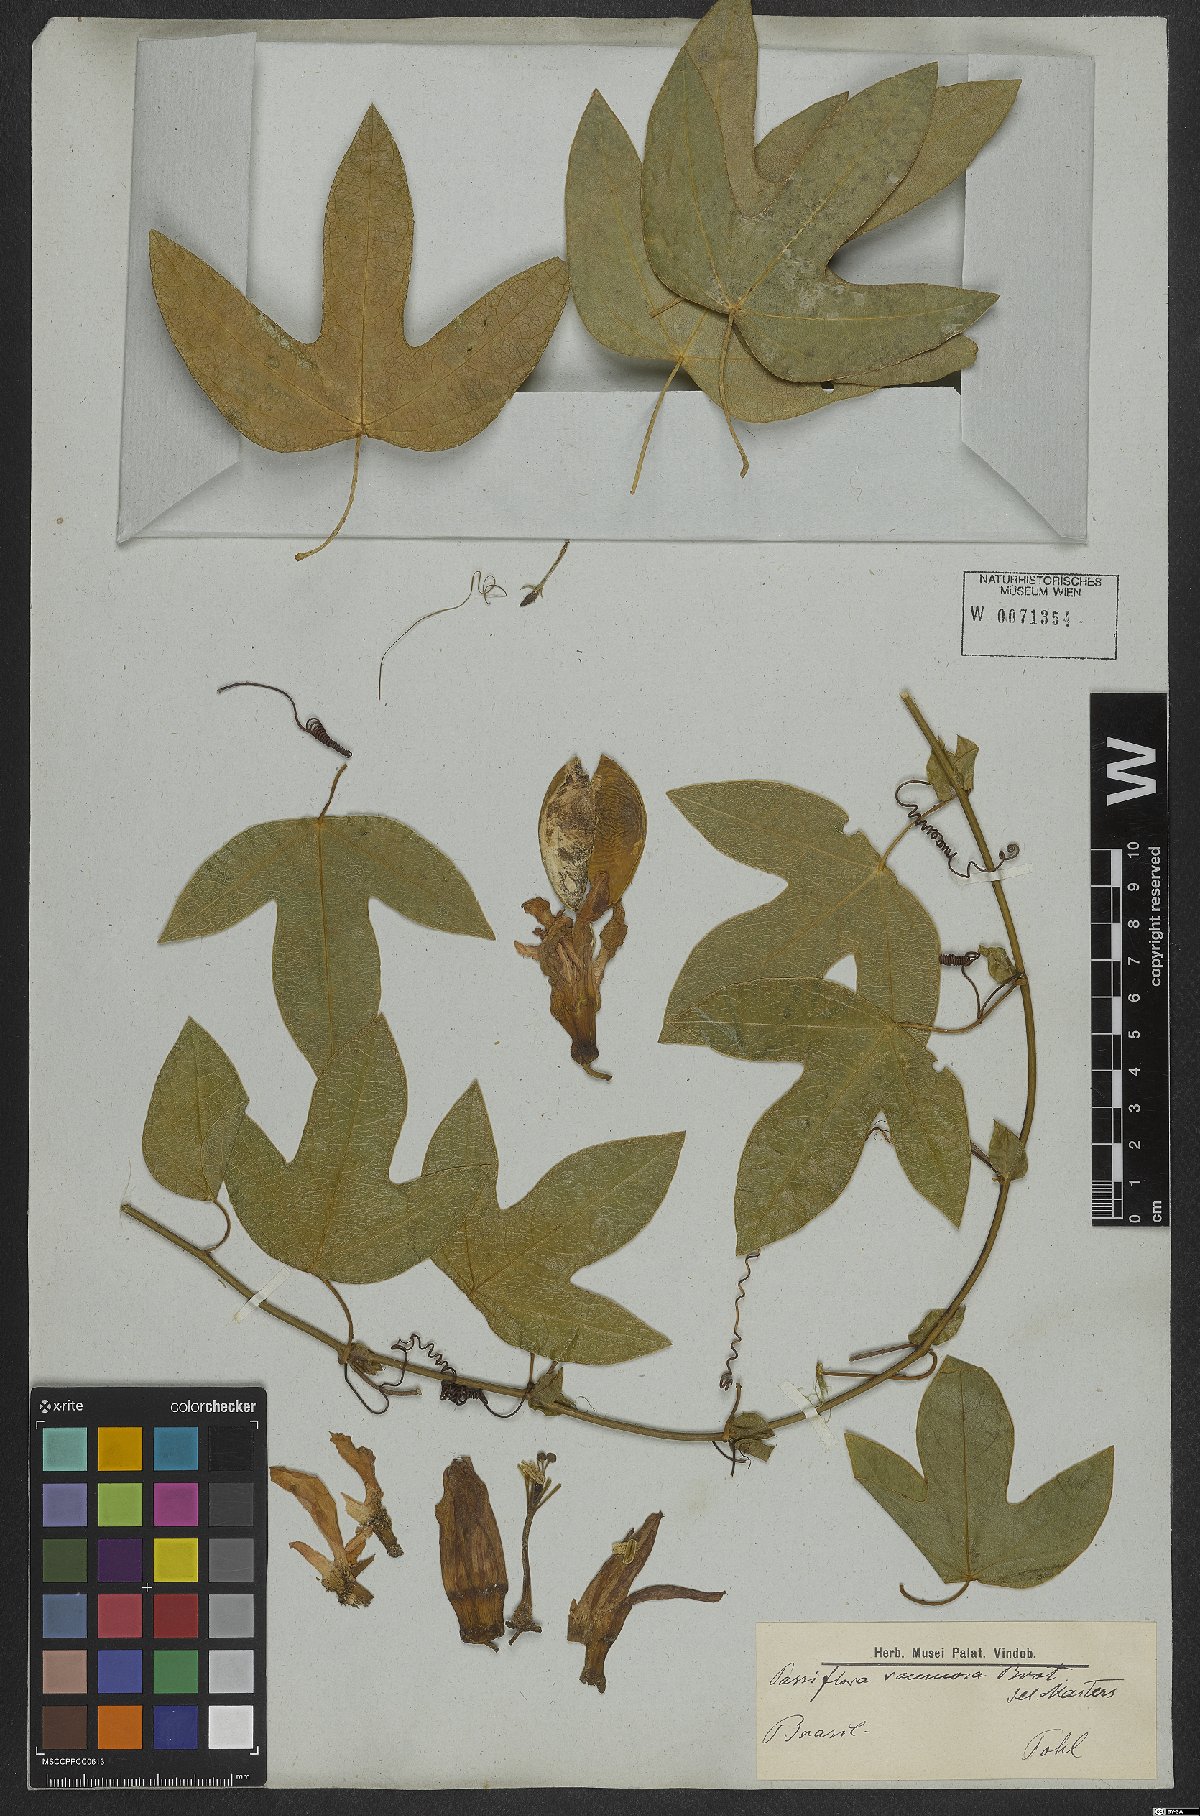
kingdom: Plantae
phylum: Tracheophyta
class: Magnoliopsida
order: Malpighiales
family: Passifloraceae
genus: Passiflora
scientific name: Passiflora racemosa
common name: Red passionflower
